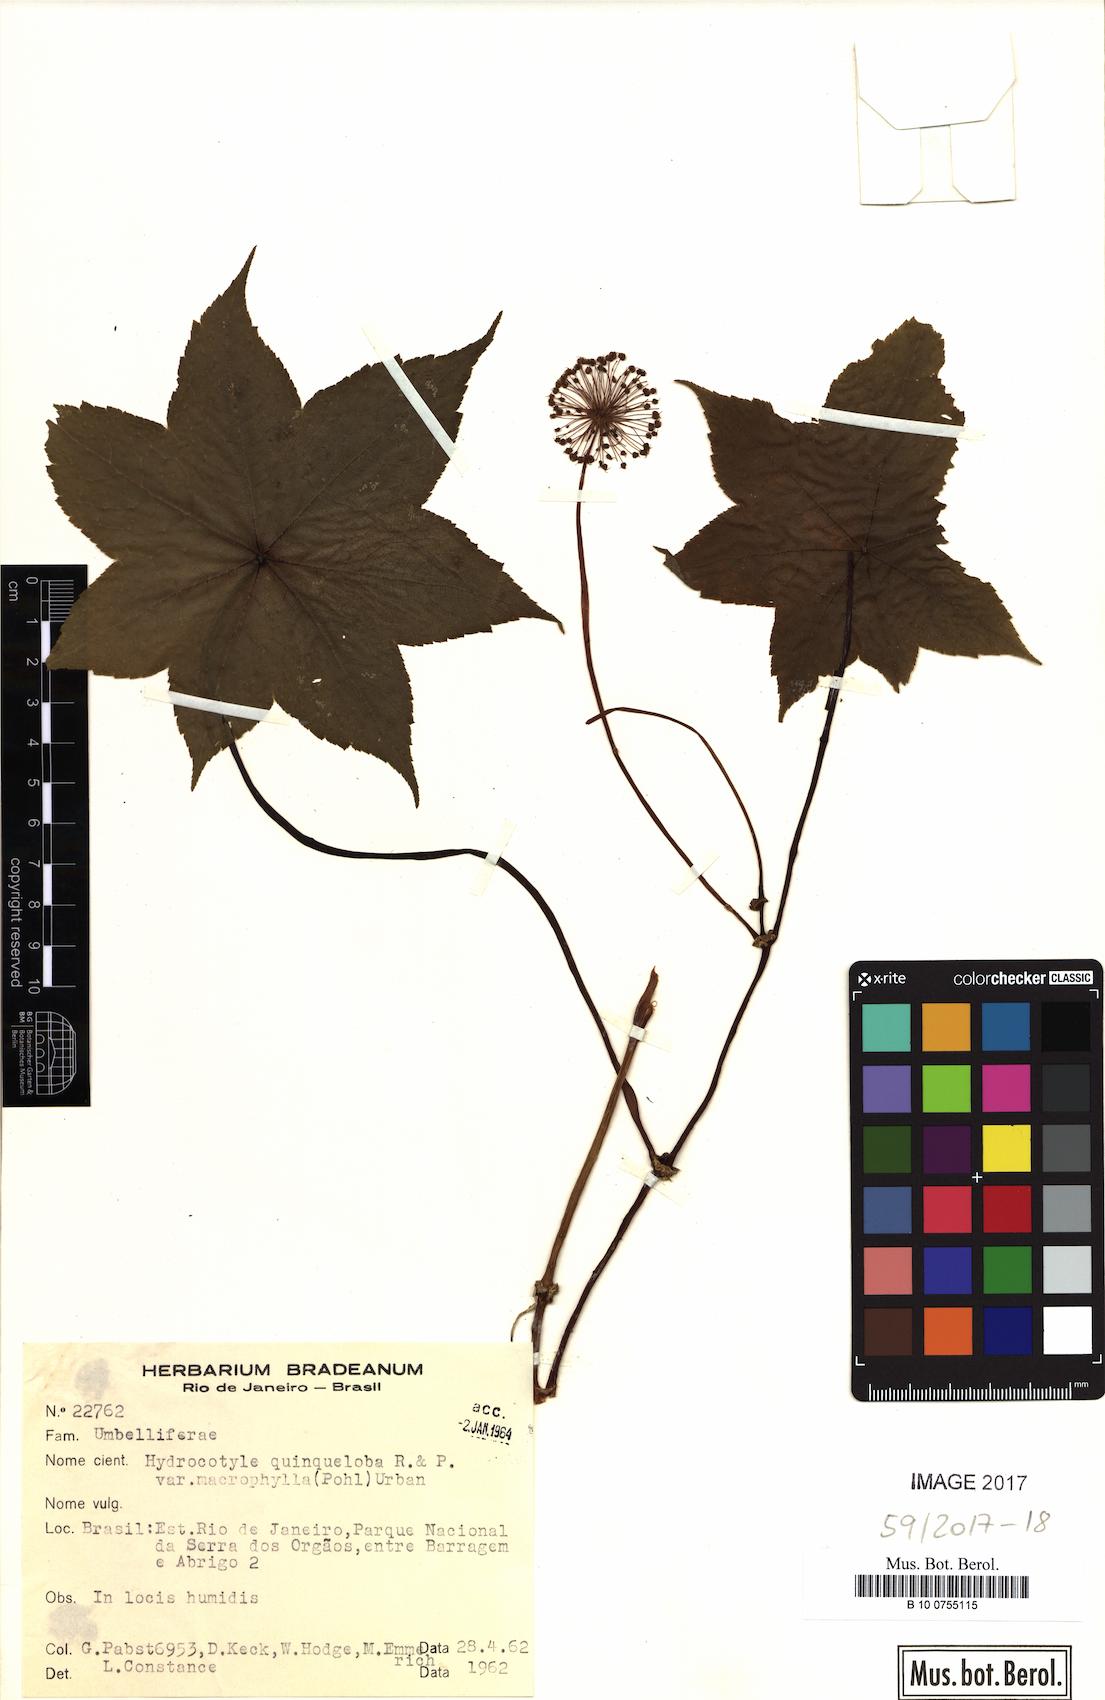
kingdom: Plantae
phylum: Tracheophyta
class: Magnoliopsida
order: Apiales
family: Araliaceae
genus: Hydrocotyle
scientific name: Hydrocotyle quinqueloba
